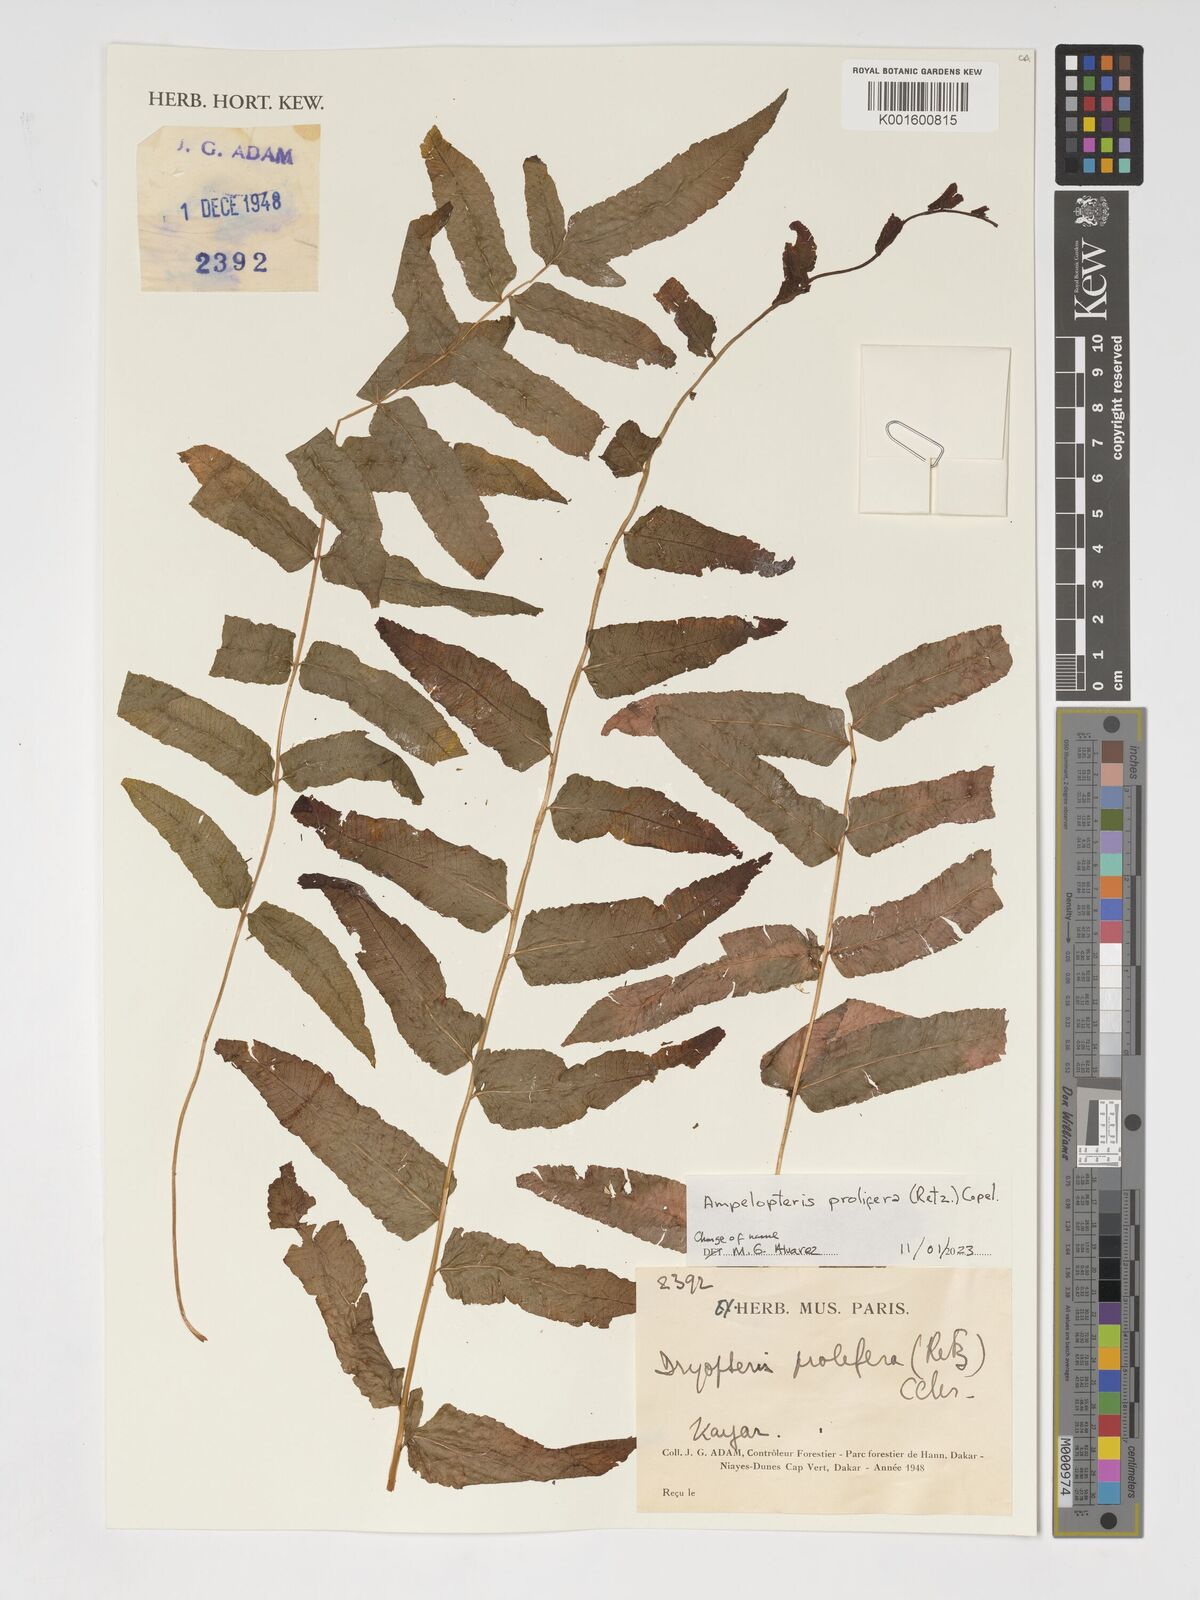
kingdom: Plantae
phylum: Tracheophyta
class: Polypodiopsida
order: Polypodiales
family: Thelypteridaceae
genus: Ampelopteris
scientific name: Ampelopteris prolifera
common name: Riverine scrambler
